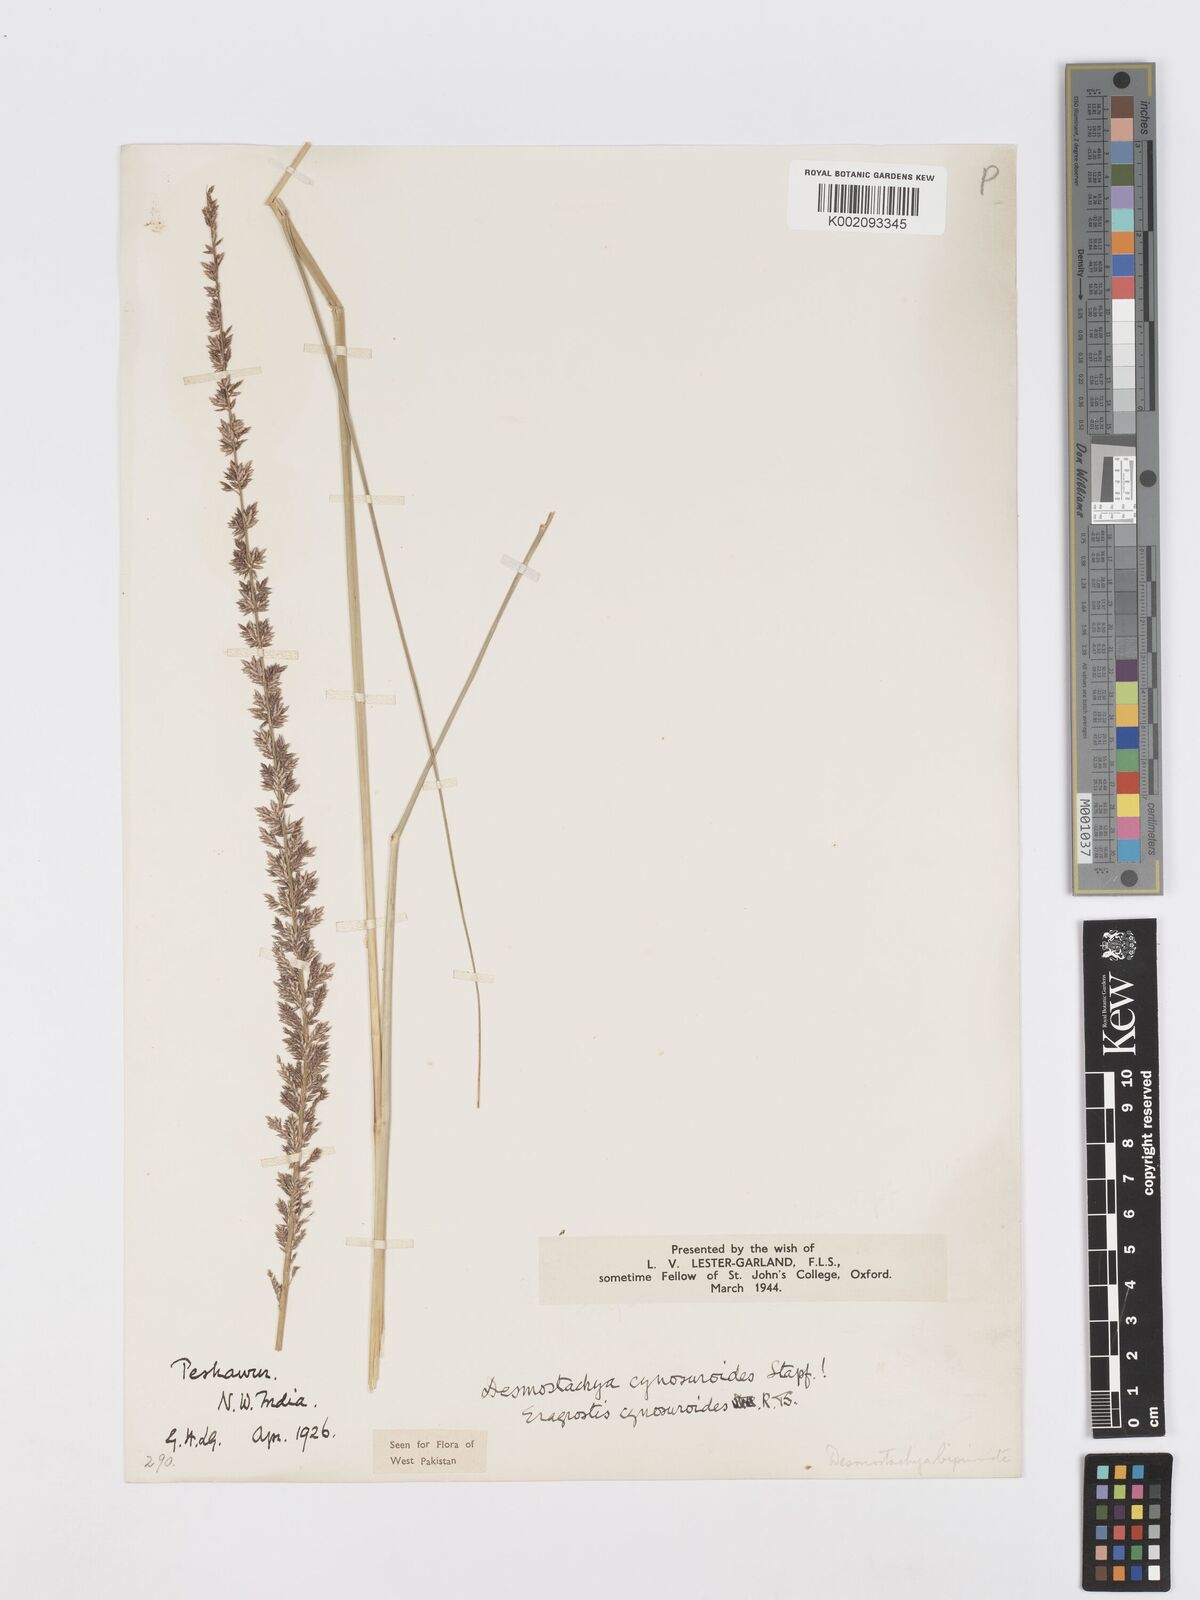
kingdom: Plantae
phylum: Tracheophyta
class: Liliopsida
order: Poales
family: Poaceae
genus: Desmostachya
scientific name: Desmostachya bipinnata
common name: Crowfoot grass
